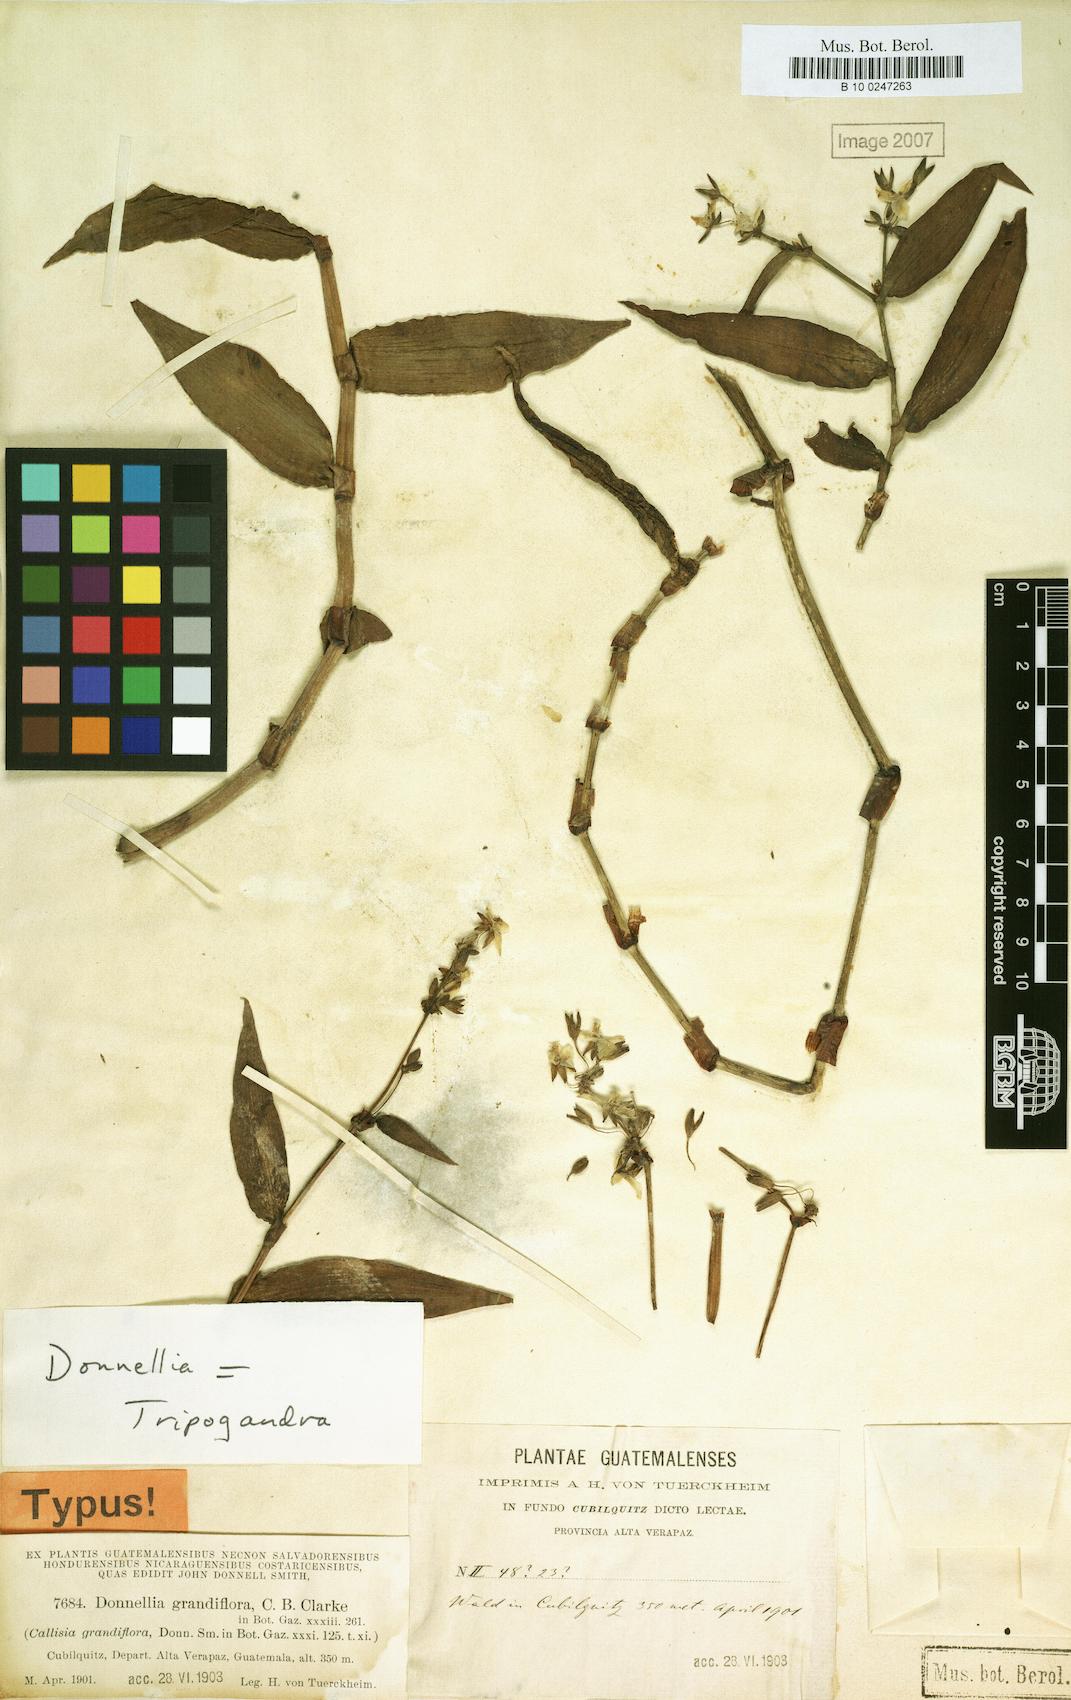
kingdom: Plantae
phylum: Tracheophyta
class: Liliopsida
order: Commelinales
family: Commelinaceae
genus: Callisia
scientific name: Callisia grandiflora
